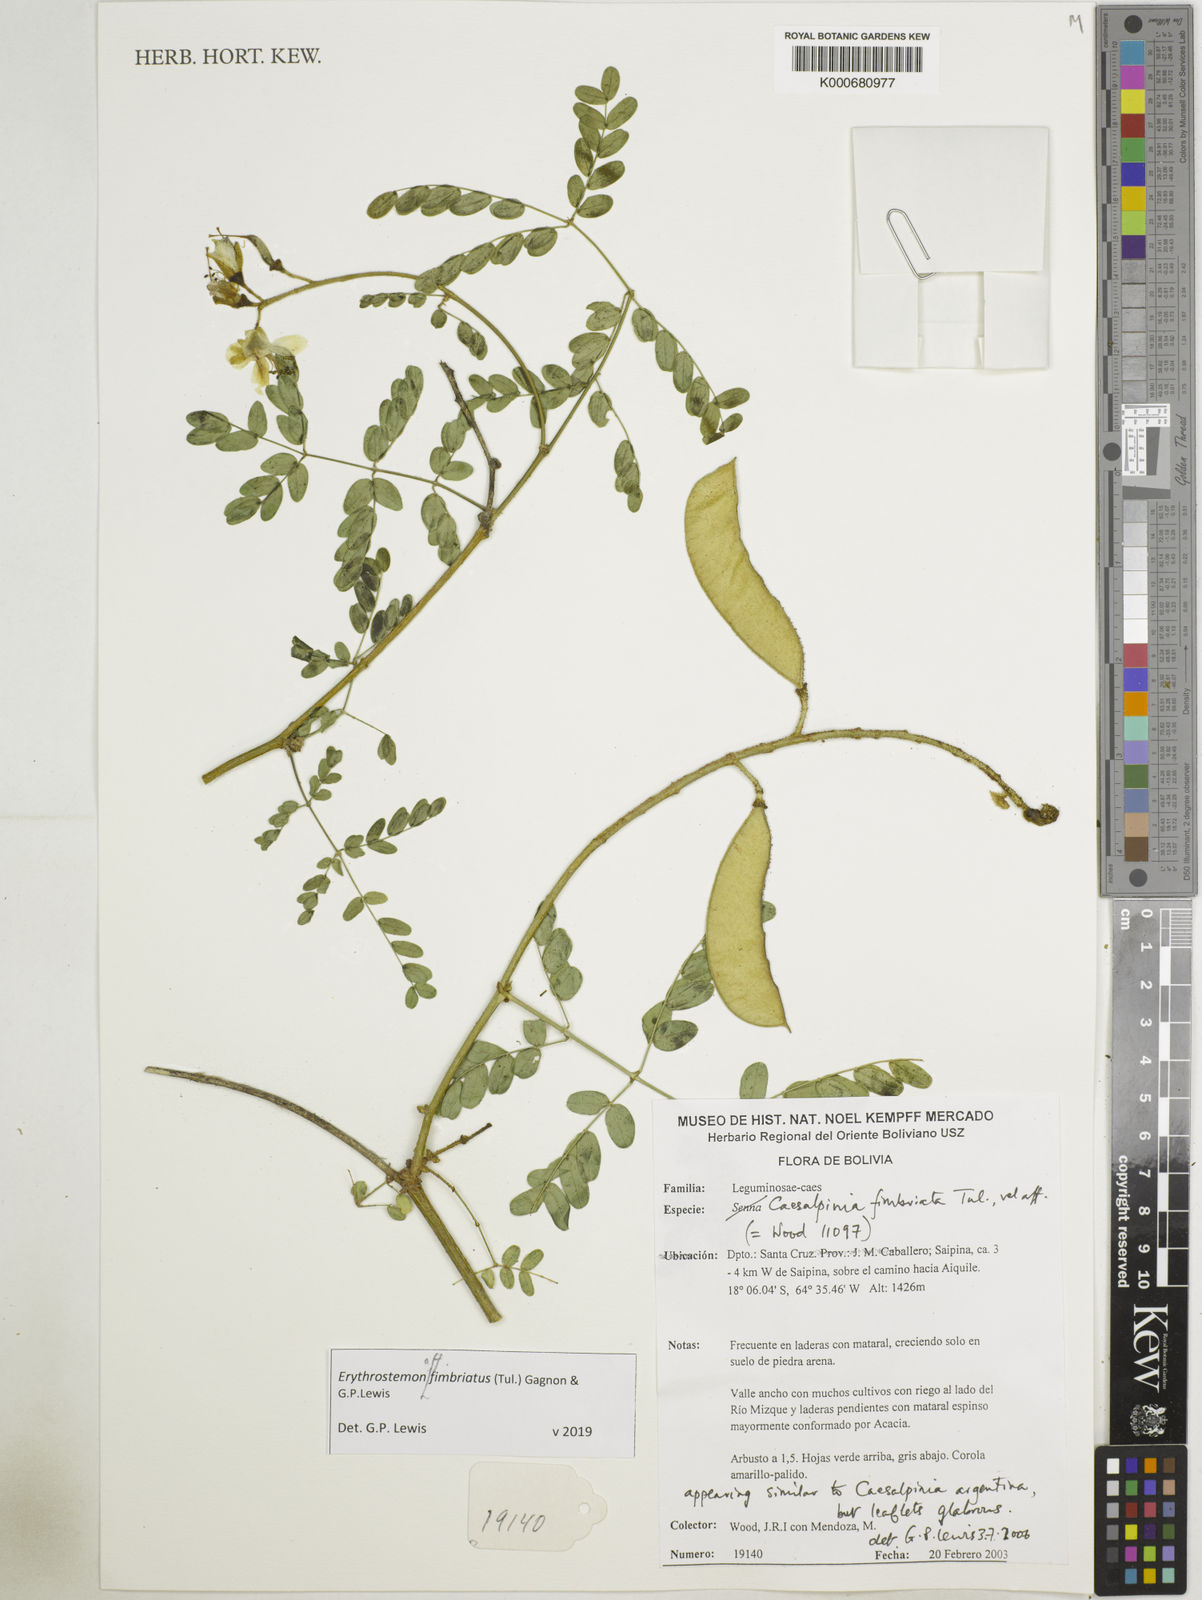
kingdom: Plantae
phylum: Tracheophyta
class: Magnoliopsida
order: Fabales
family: Fabaceae
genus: Erythrostemon
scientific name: Erythrostemon fimbriatus
